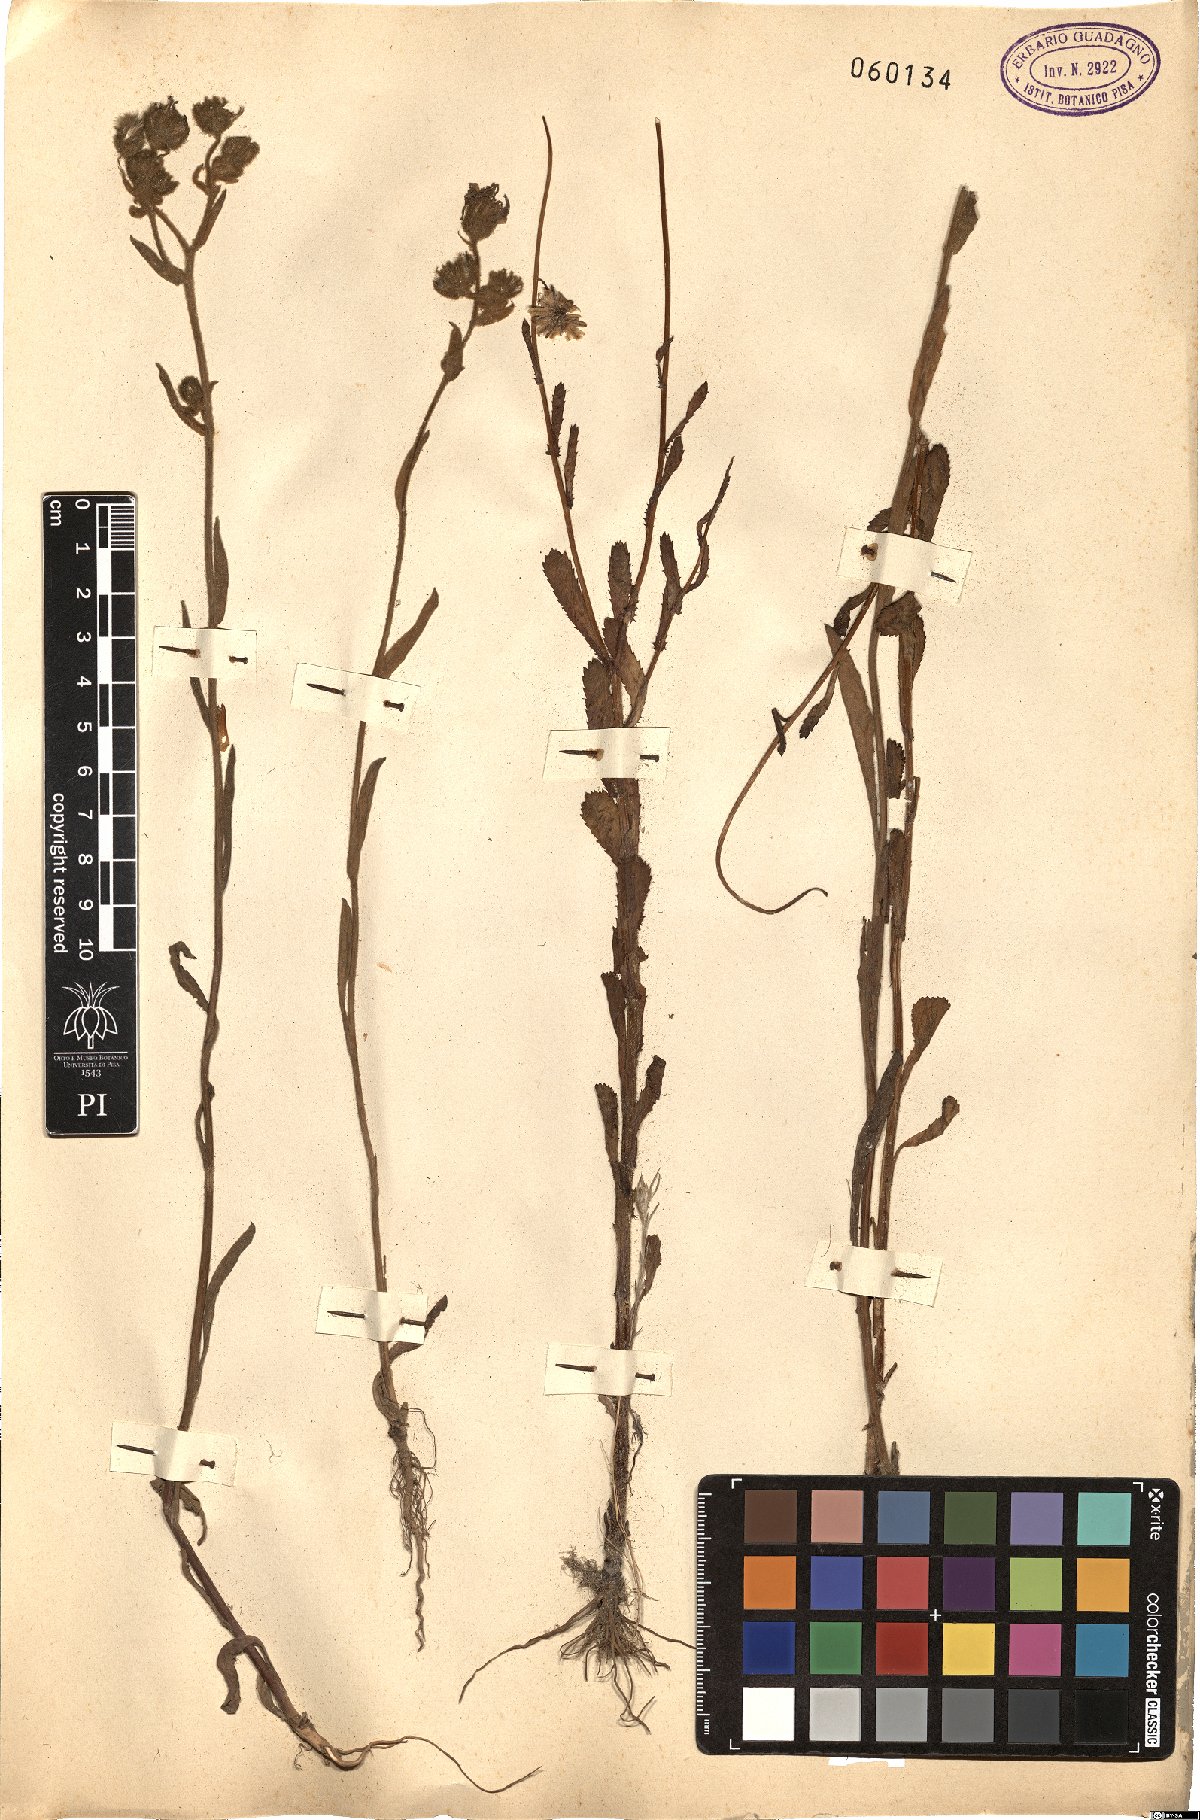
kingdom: Plantae
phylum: Tracheophyta
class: Magnoliopsida
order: Asterales
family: Asteraceae
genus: Andryala
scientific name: Andryala integrifolia
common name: Common andryala
